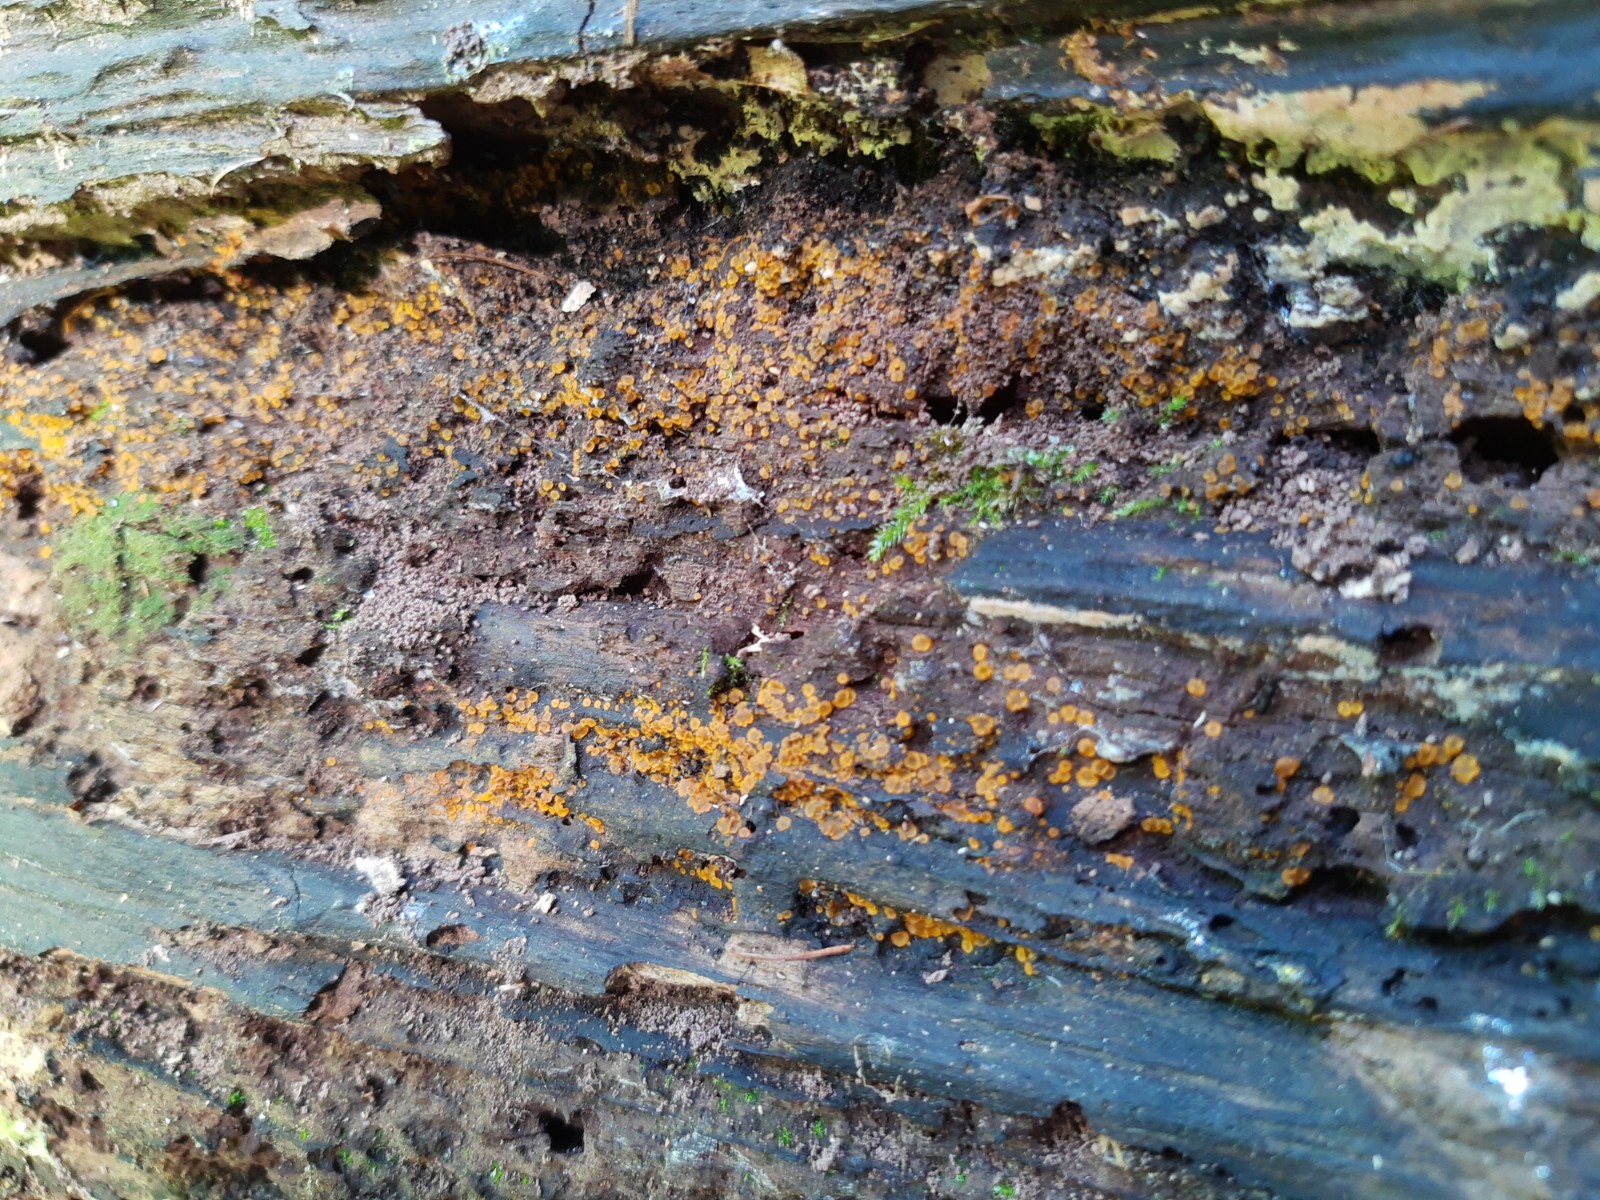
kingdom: Fungi
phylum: Ascomycota
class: Orbiliomycetes
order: Orbiliales
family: Orbiliaceae
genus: Orbilia
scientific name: Orbilia xanthostigma
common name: krumsporet voksskive
